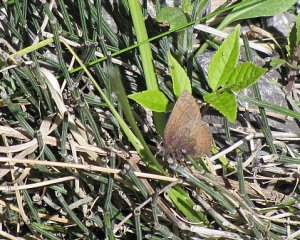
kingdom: Animalia
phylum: Arthropoda
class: Insecta
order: Lepidoptera
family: Lycaenidae
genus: Incisalia
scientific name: Incisalia irioides
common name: Brown Elfin
